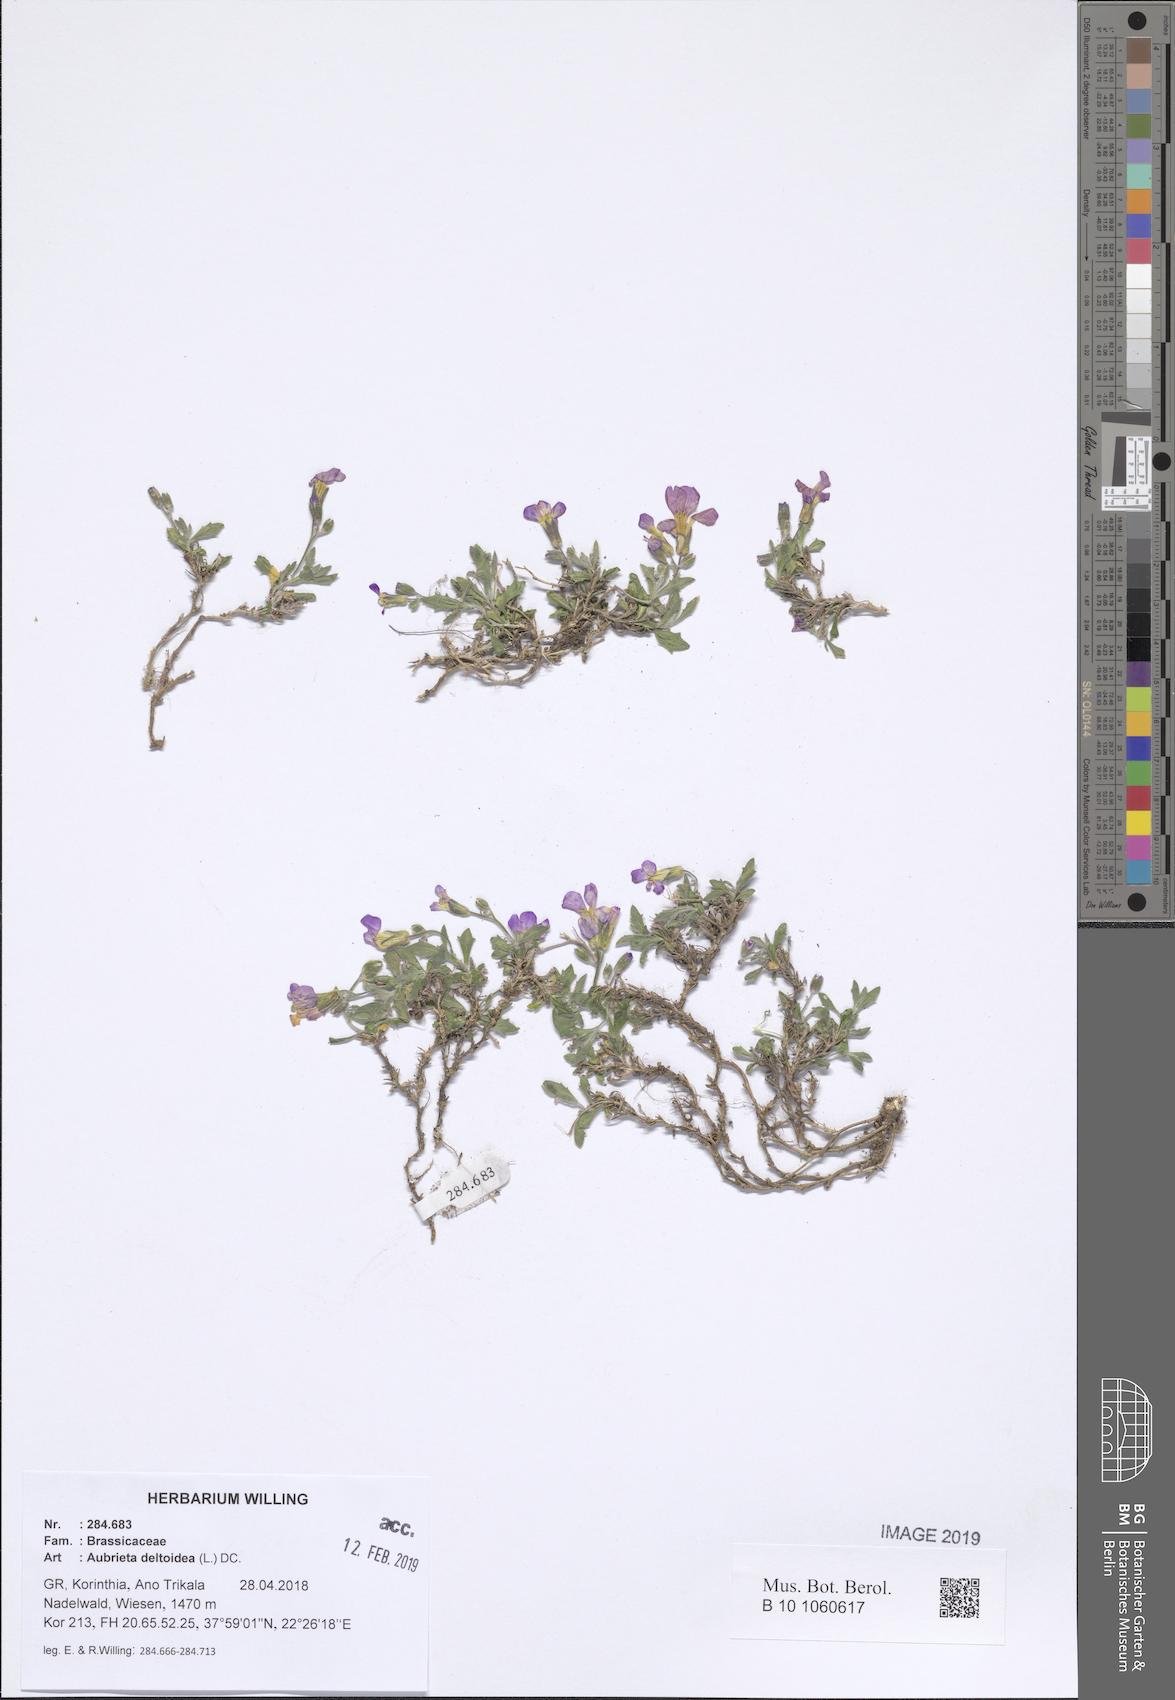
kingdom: Plantae
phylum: Tracheophyta
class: Magnoliopsida
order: Brassicales
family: Brassicaceae
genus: Aubrieta
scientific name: Aubrieta deltoidea
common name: Aubretia
